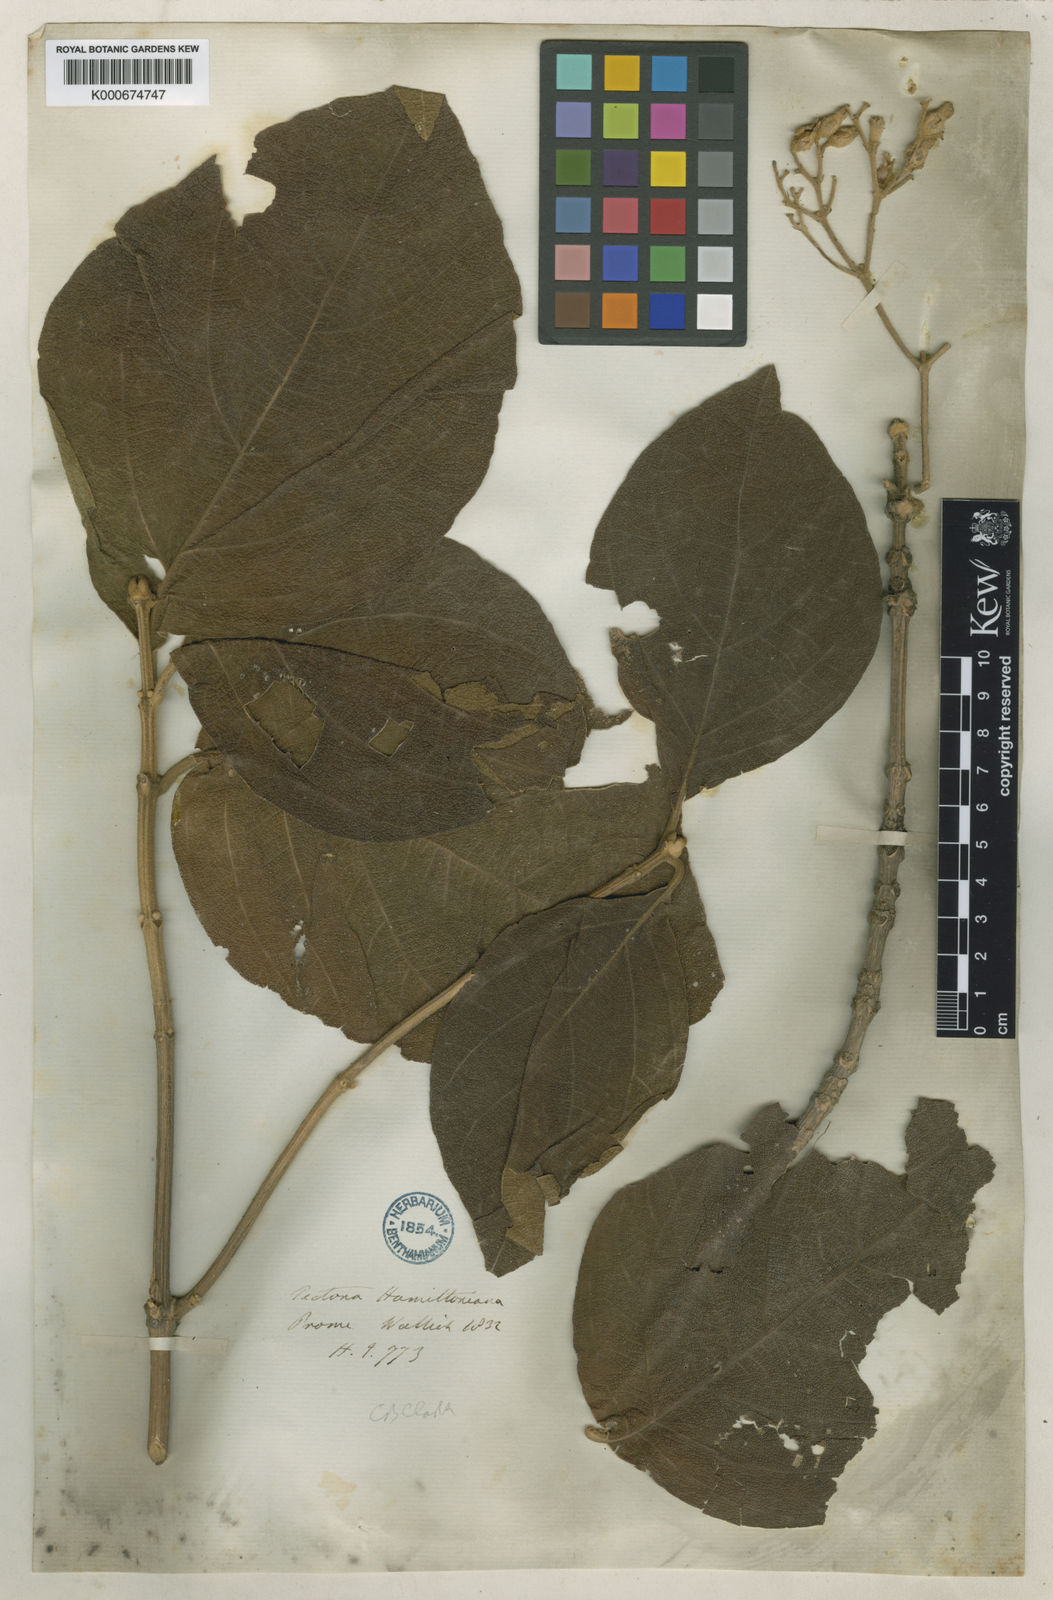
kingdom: Plantae
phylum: Tracheophyta
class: Magnoliopsida
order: Lamiales
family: Lamiaceae
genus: Tectona
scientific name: Tectona hamiltoniana
